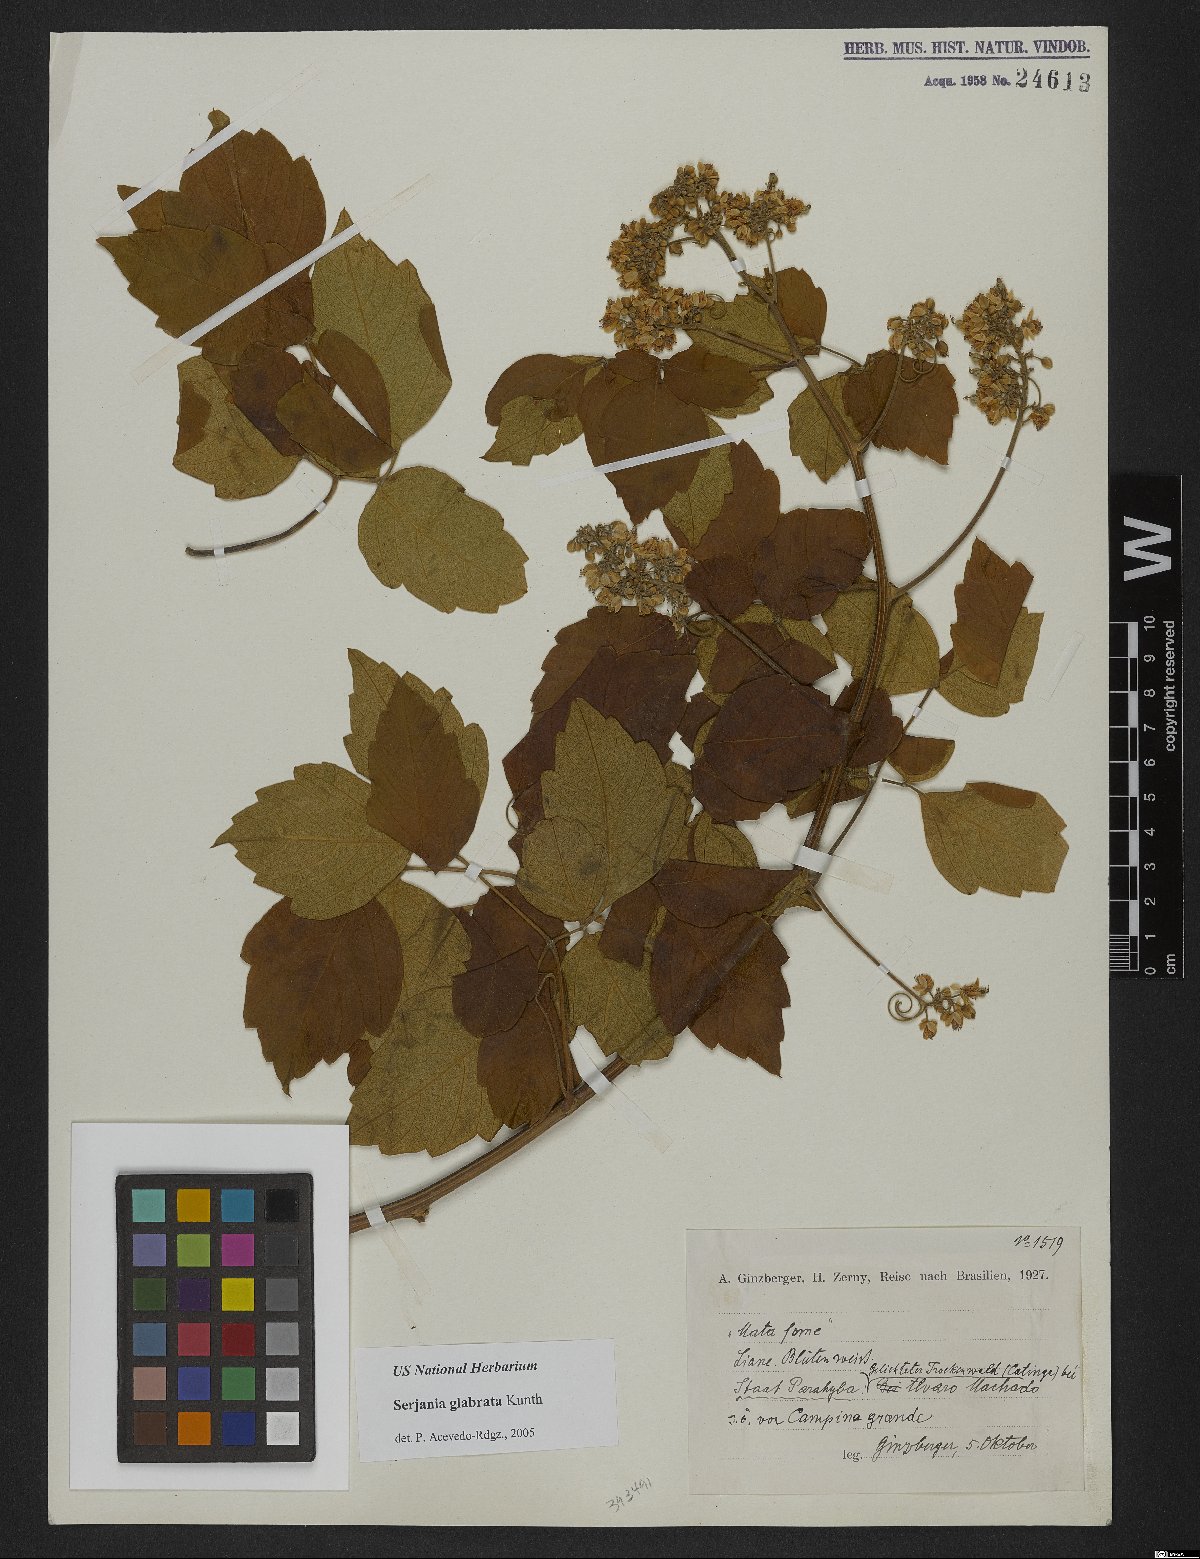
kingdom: Plantae
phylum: Tracheophyta
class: Magnoliopsida
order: Sapindales
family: Sapindaceae
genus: Serjania
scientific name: Serjania glabrata
